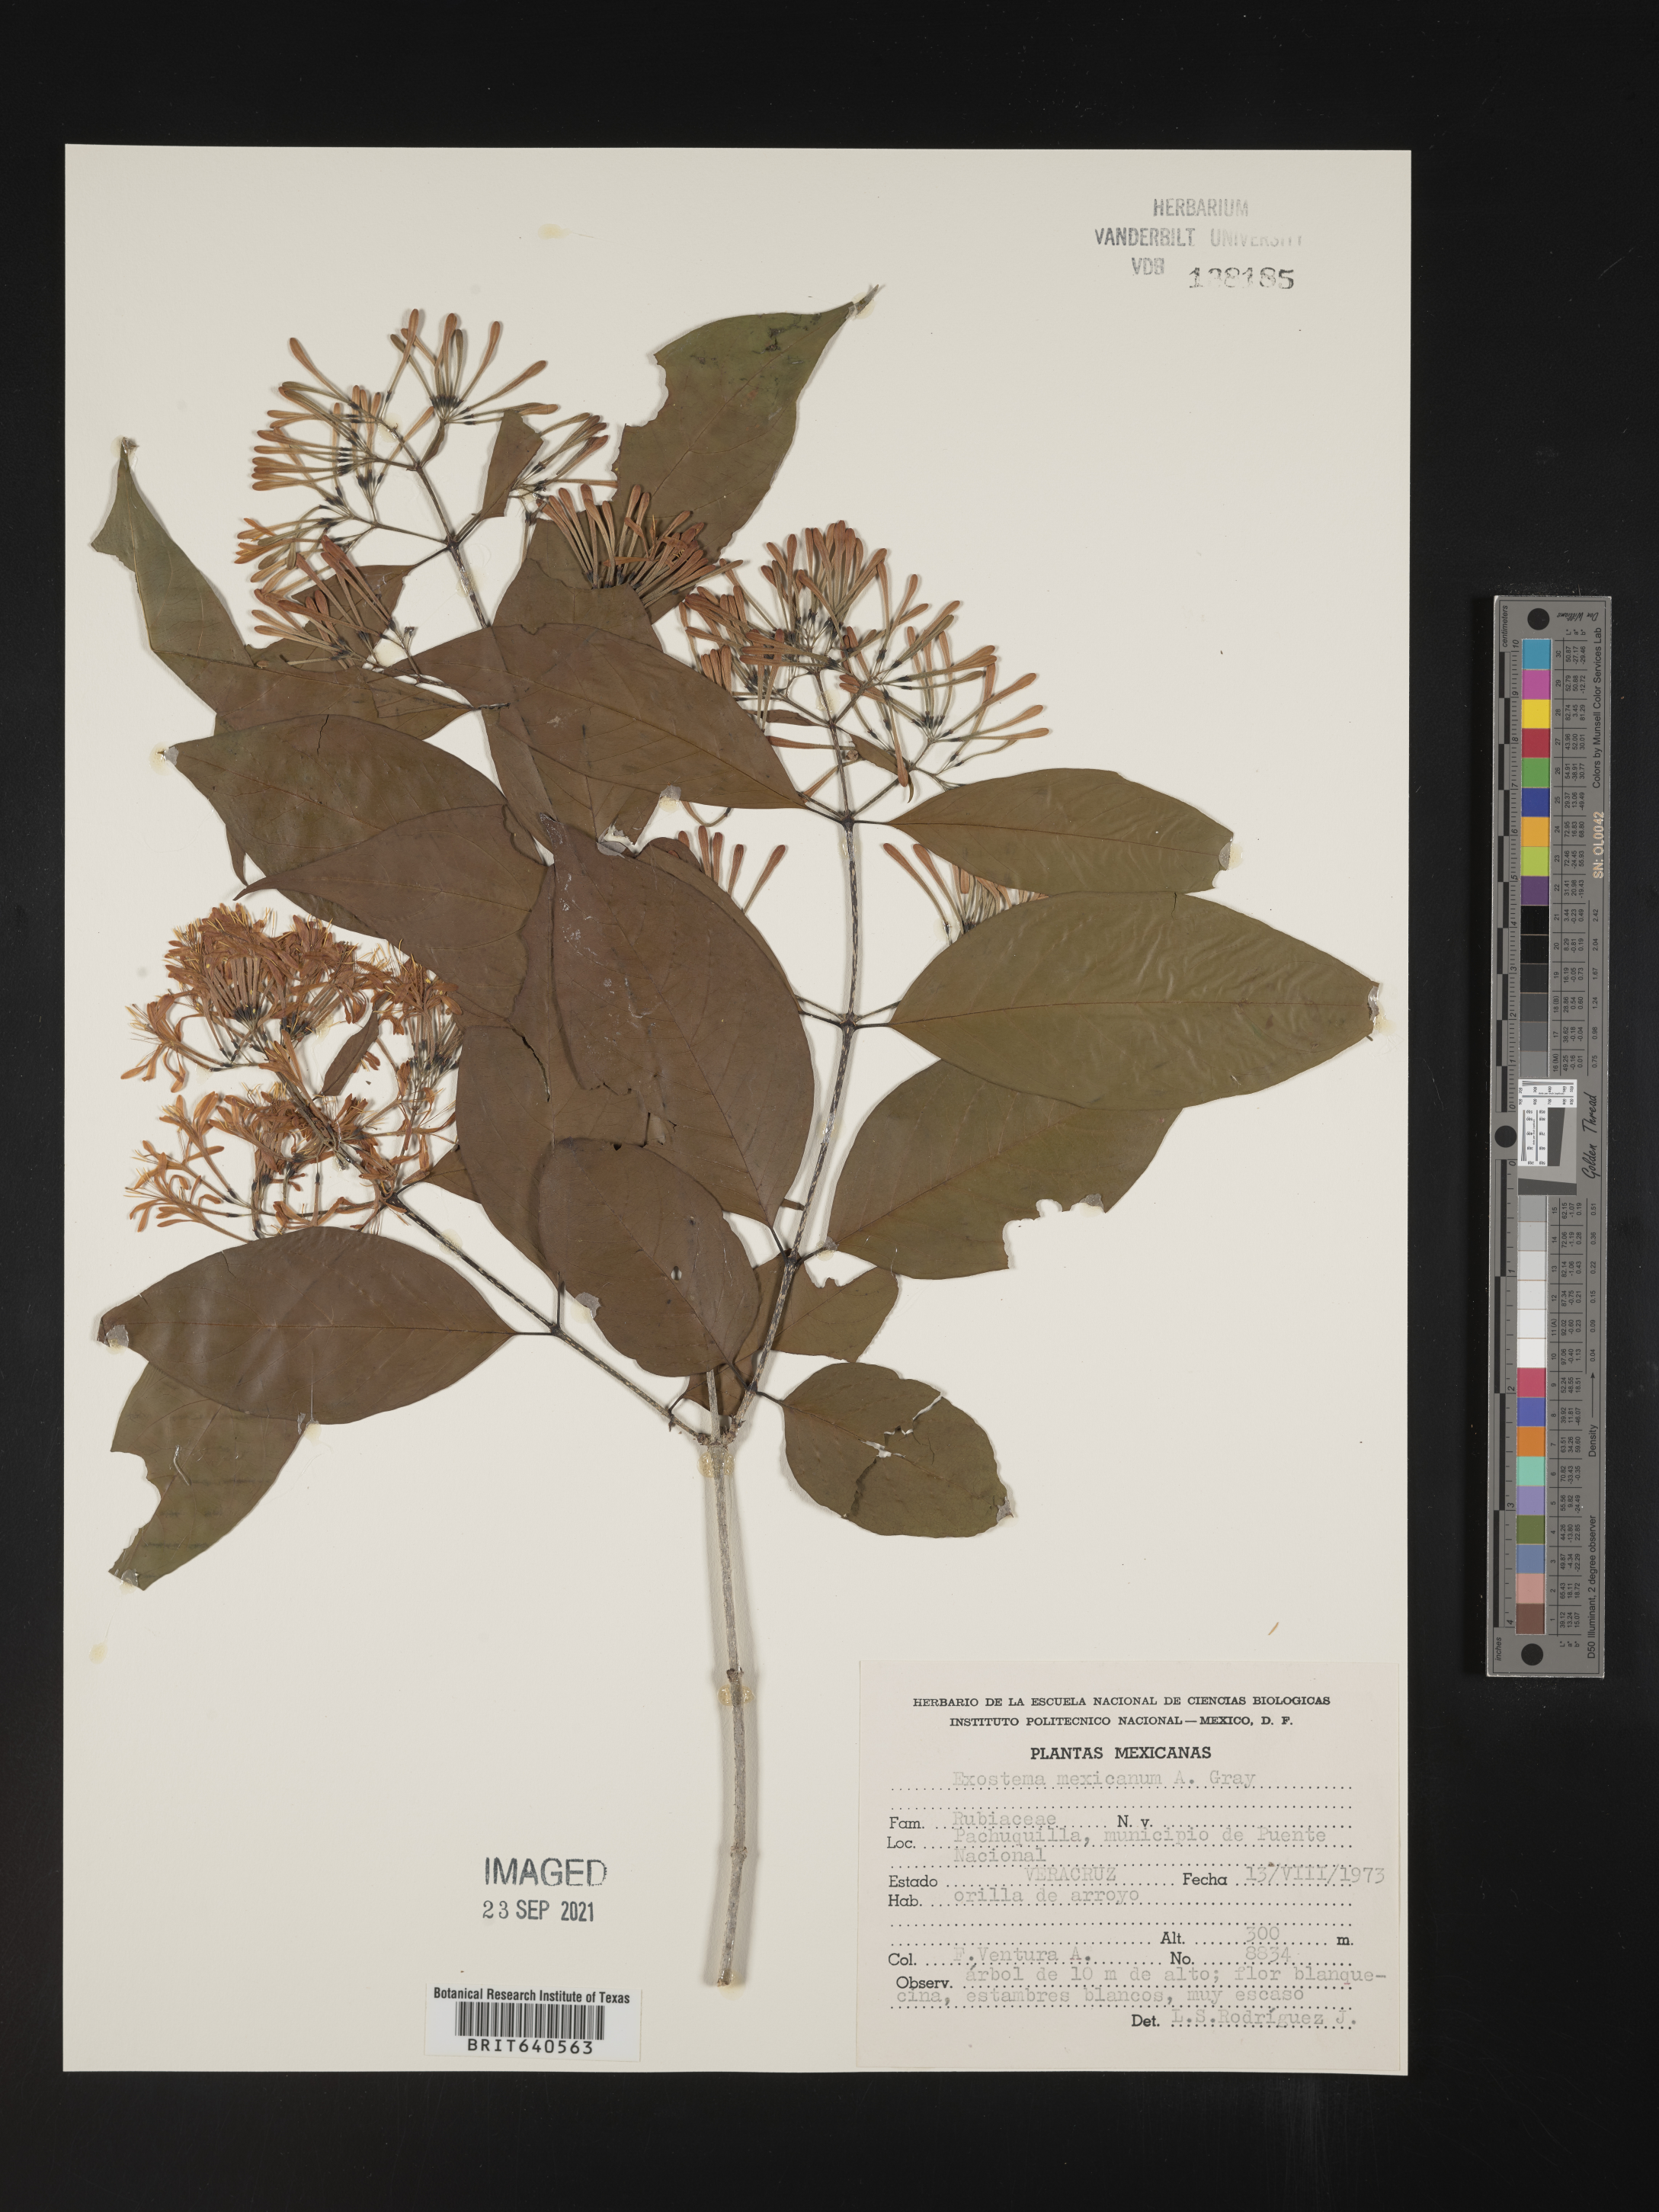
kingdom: Plantae
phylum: Tracheophyta
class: Magnoliopsida
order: Gentianales
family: Rubiaceae
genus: Exostema
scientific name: Exostema
